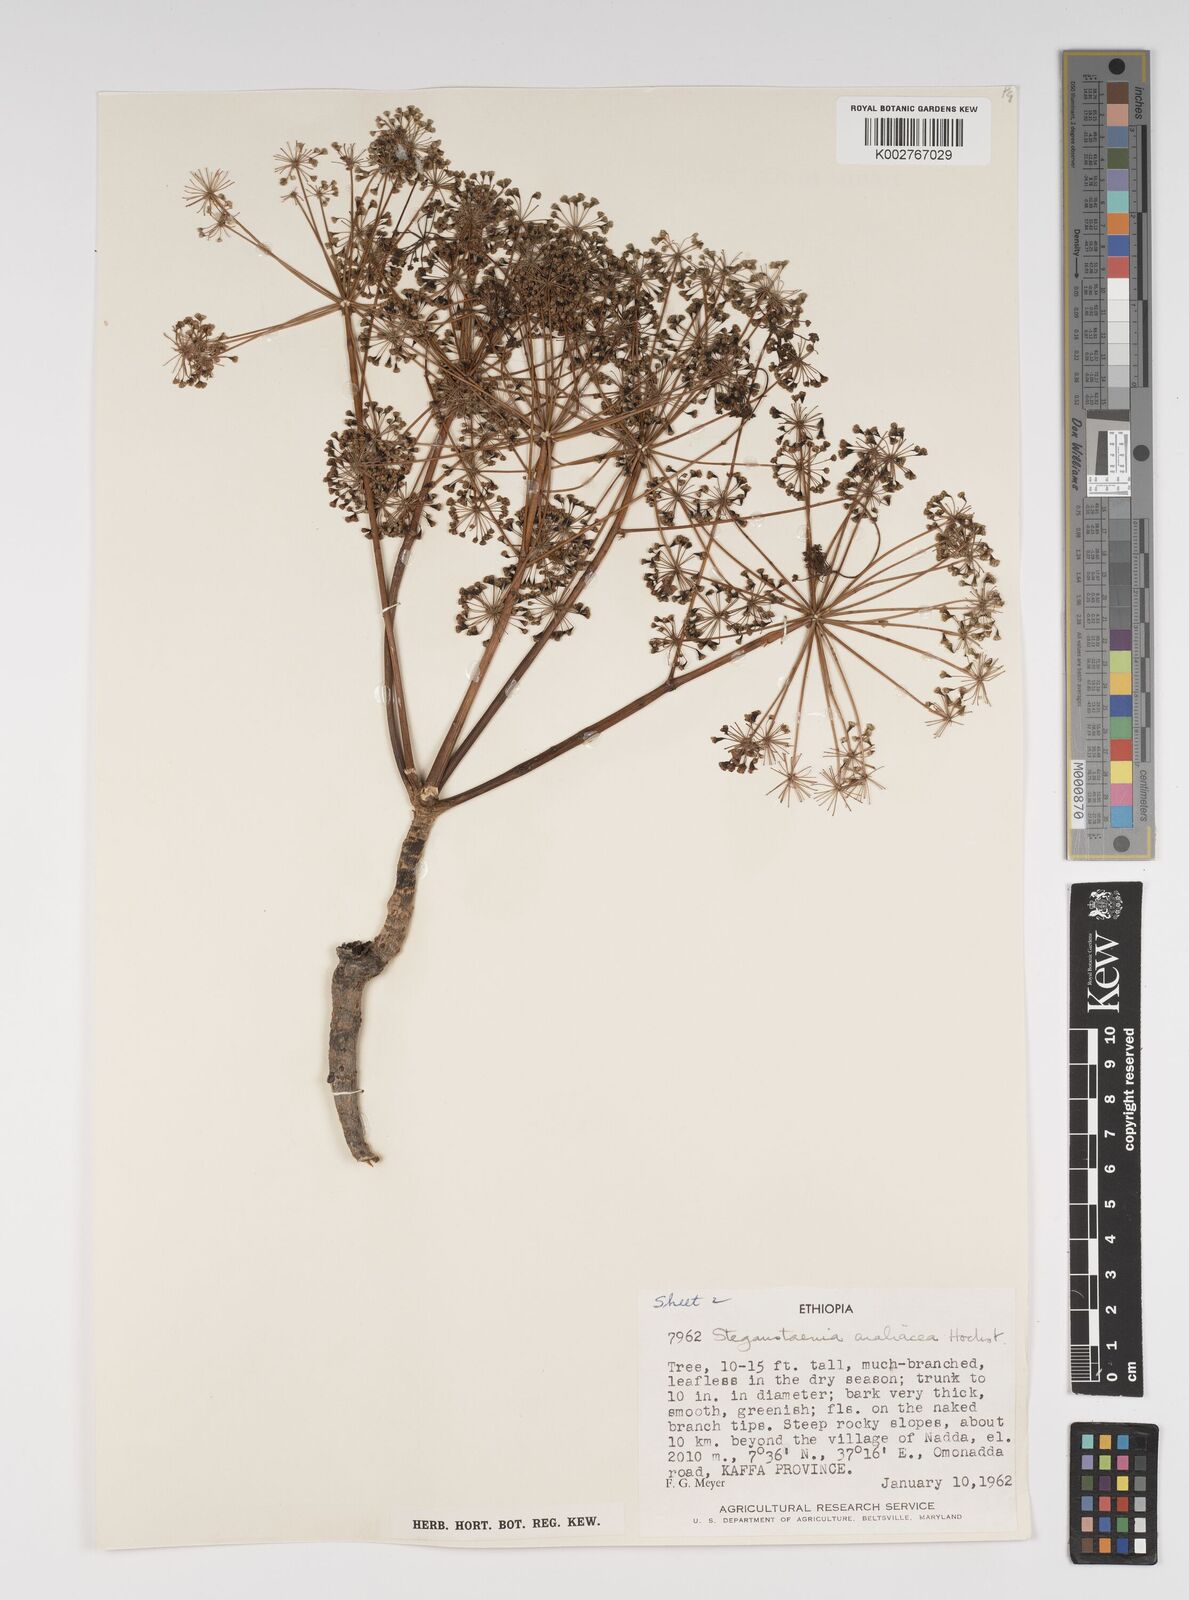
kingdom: Plantae
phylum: Tracheophyta
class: Magnoliopsida
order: Apiales
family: Apiaceae
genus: Steganotaenia
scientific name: Steganotaenia araliacea
